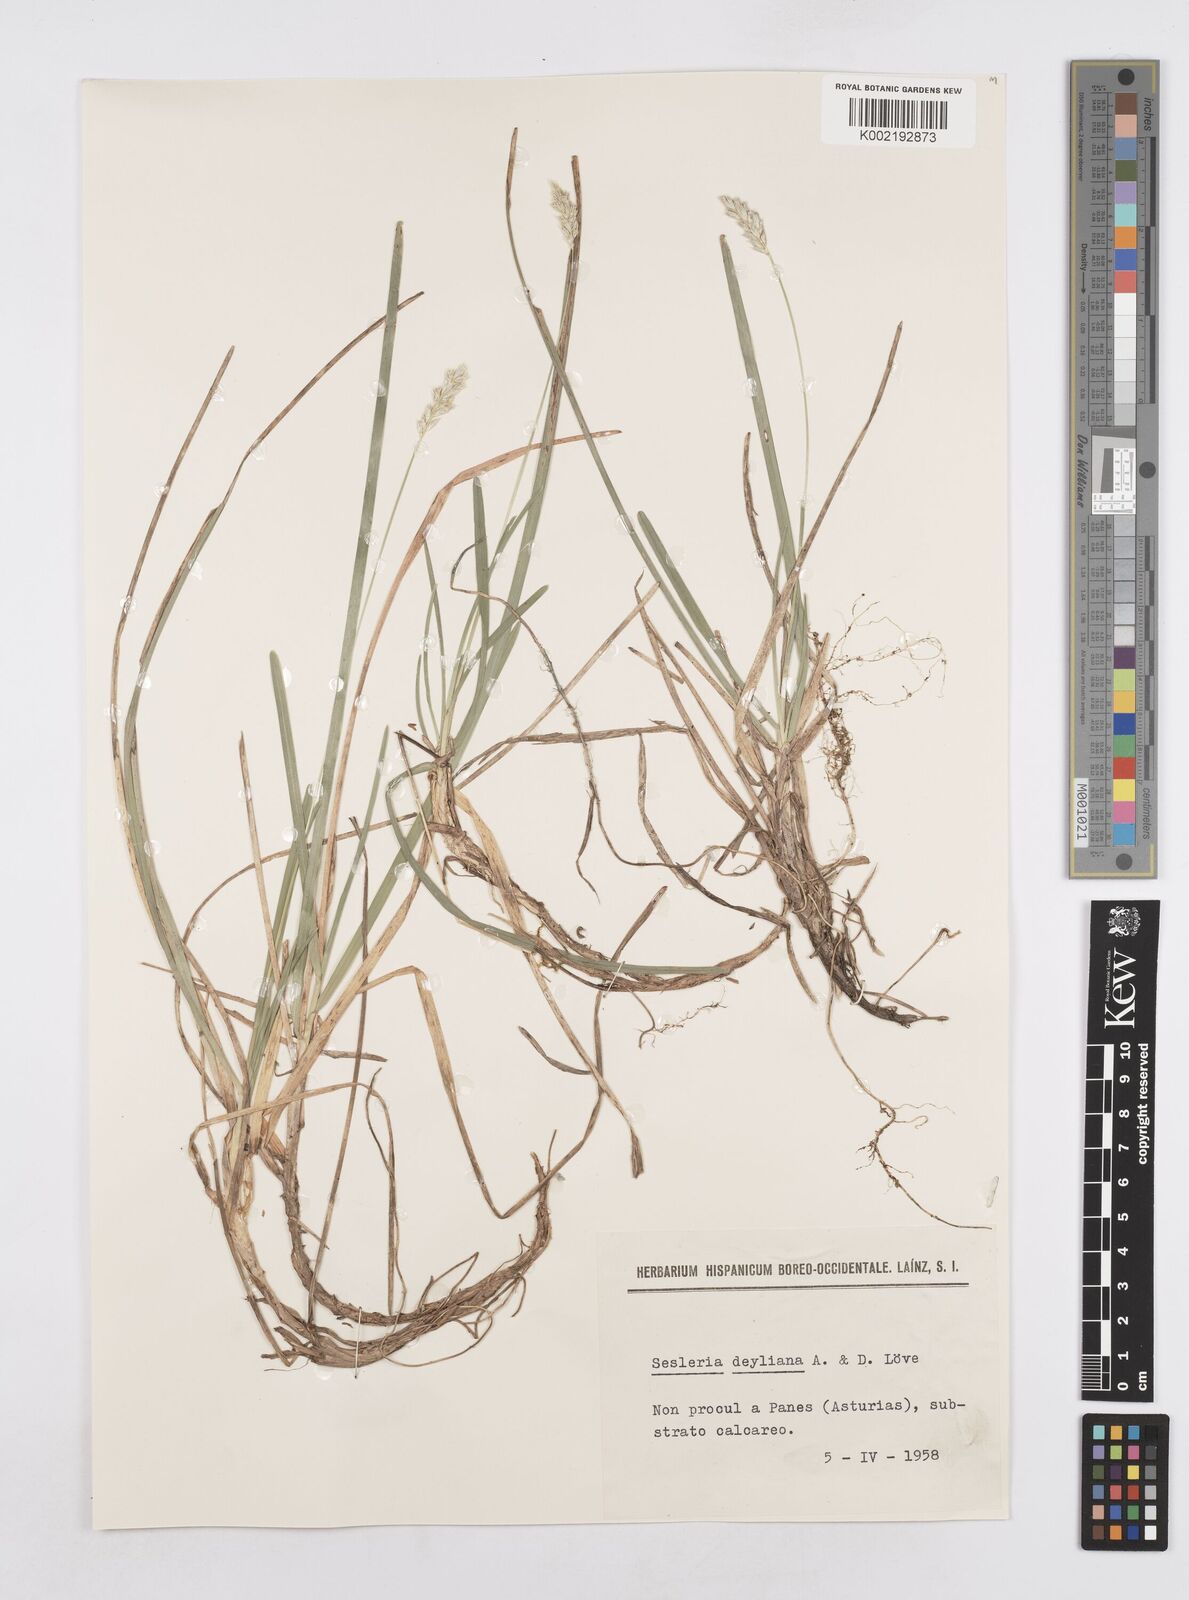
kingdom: Plantae
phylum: Tracheophyta
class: Liliopsida
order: Poales
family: Poaceae
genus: Sesleria
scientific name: Sesleria albicans
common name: Blue moor-grass
